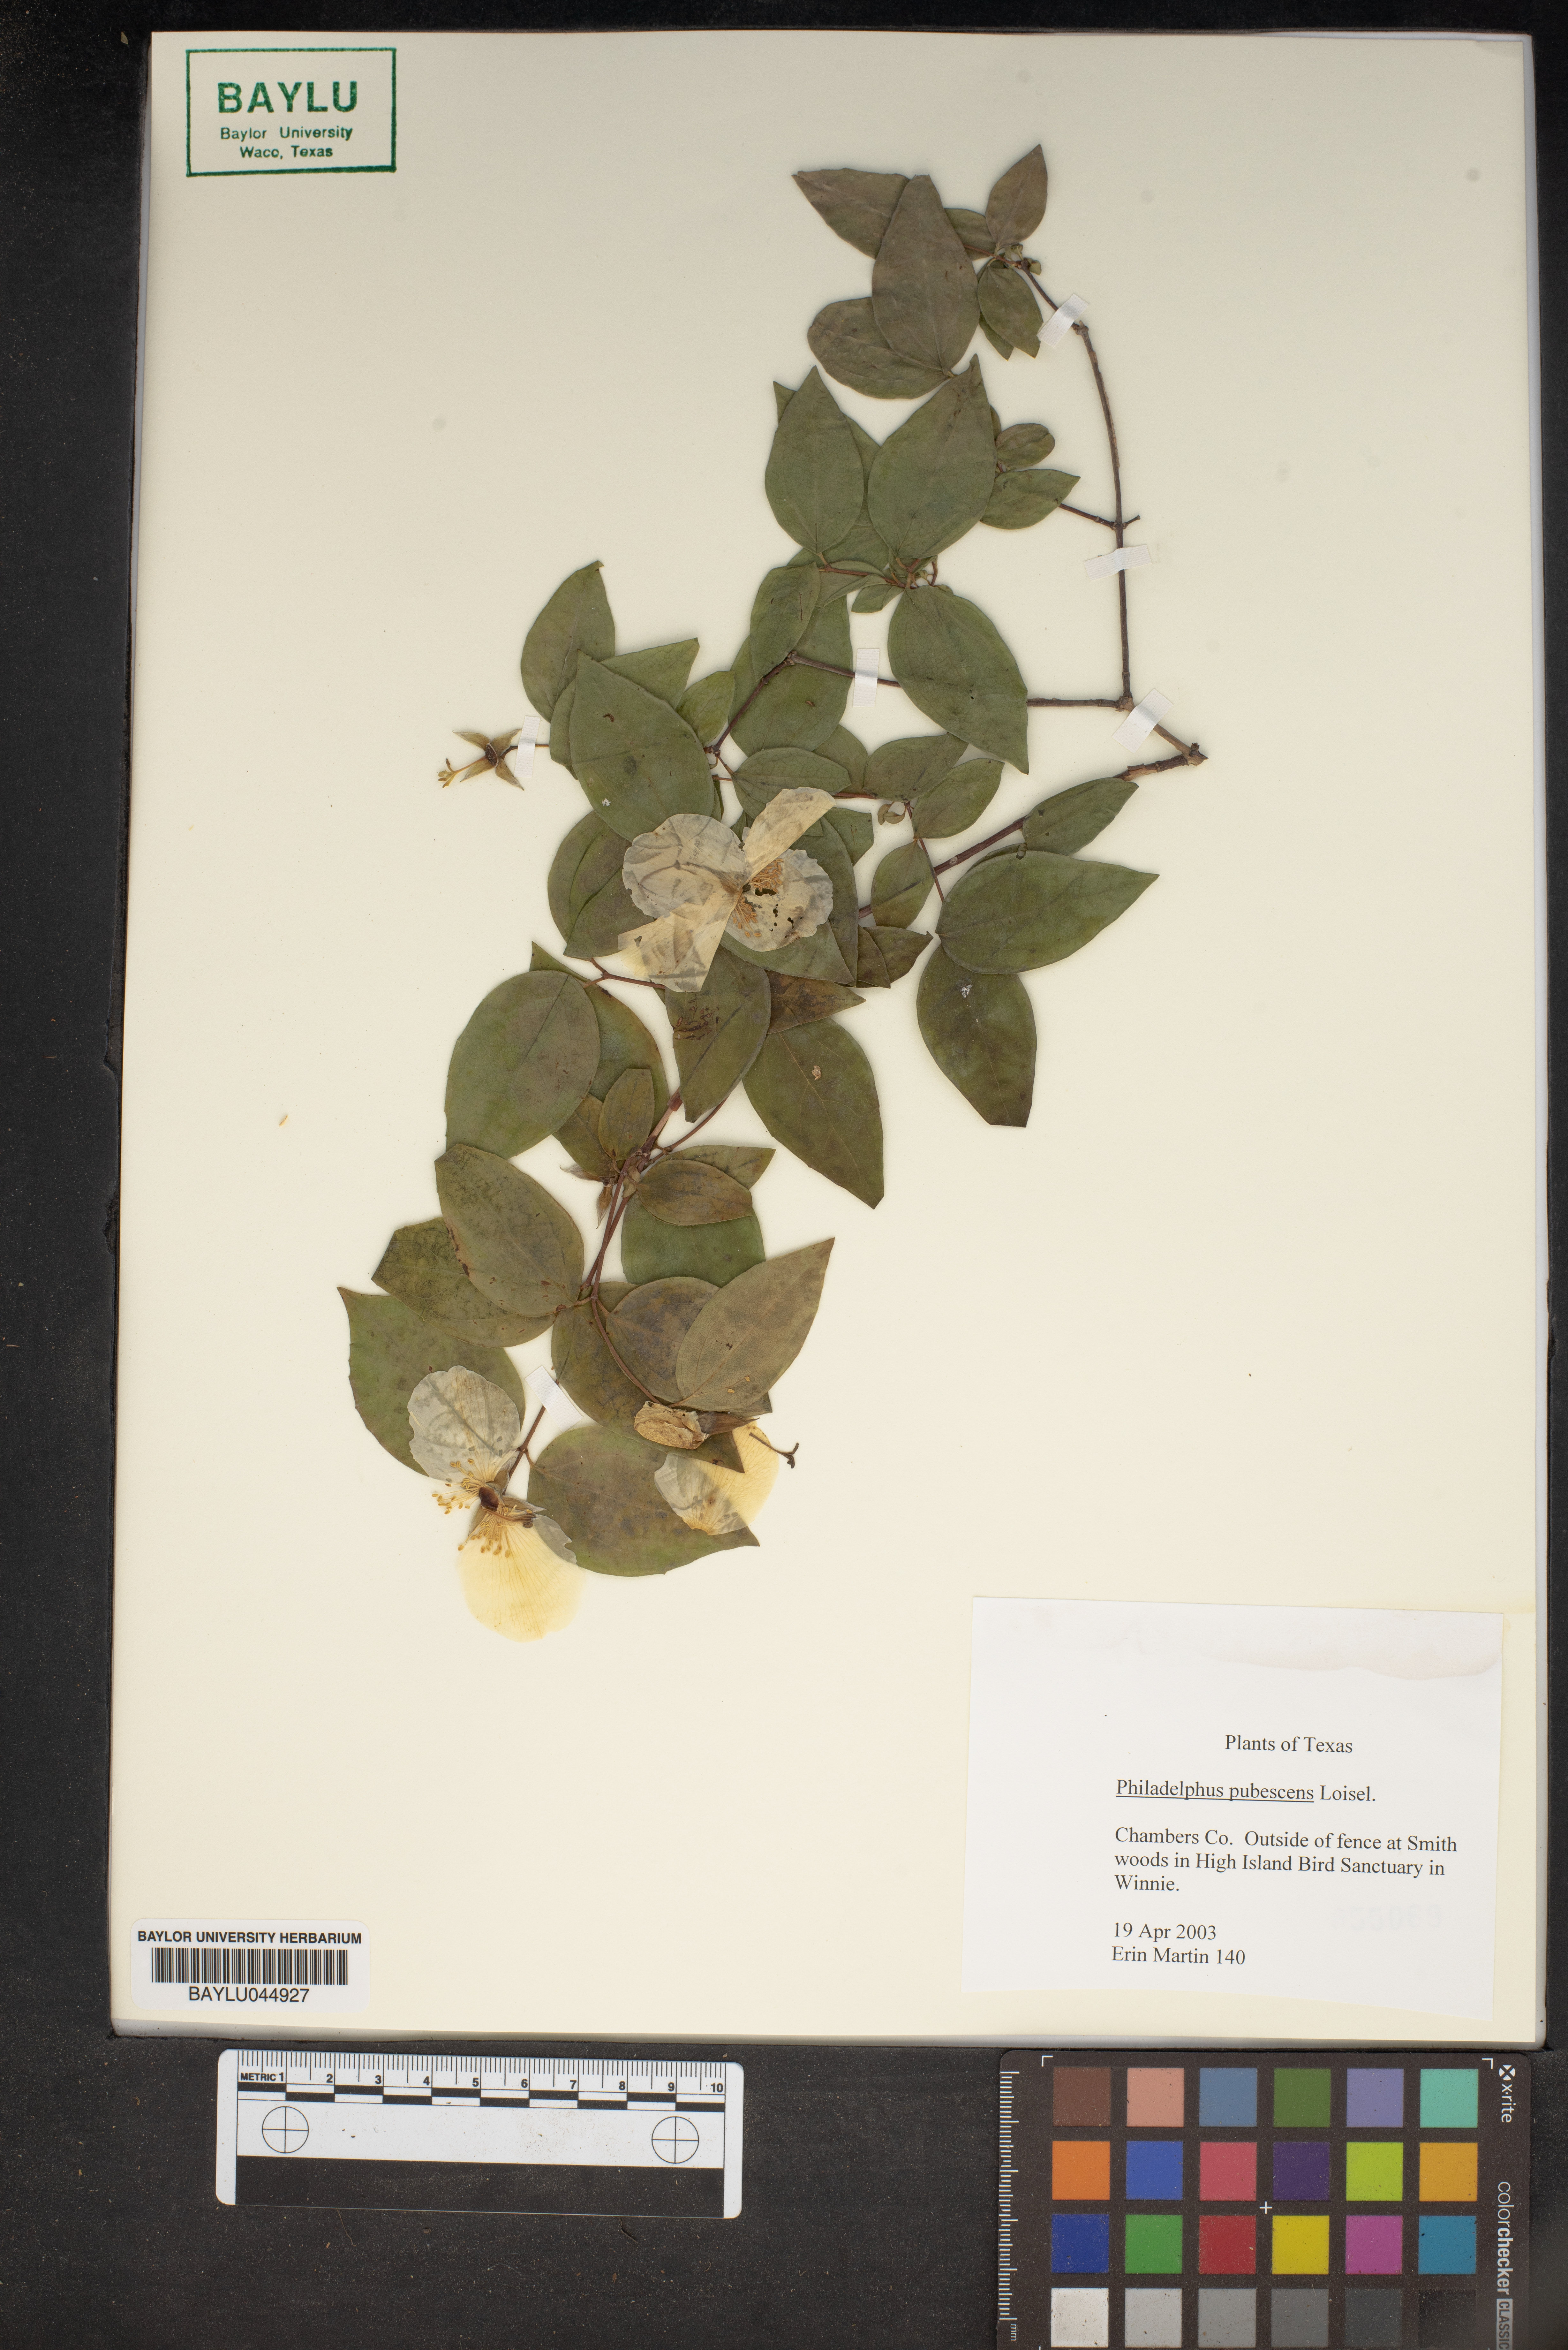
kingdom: Plantae
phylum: Tracheophyta
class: Magnoliopsida
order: Cornales
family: Hydrangeaceae
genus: Philadelphus
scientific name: Philadelphus pubescens
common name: Broadleaf mock orange
